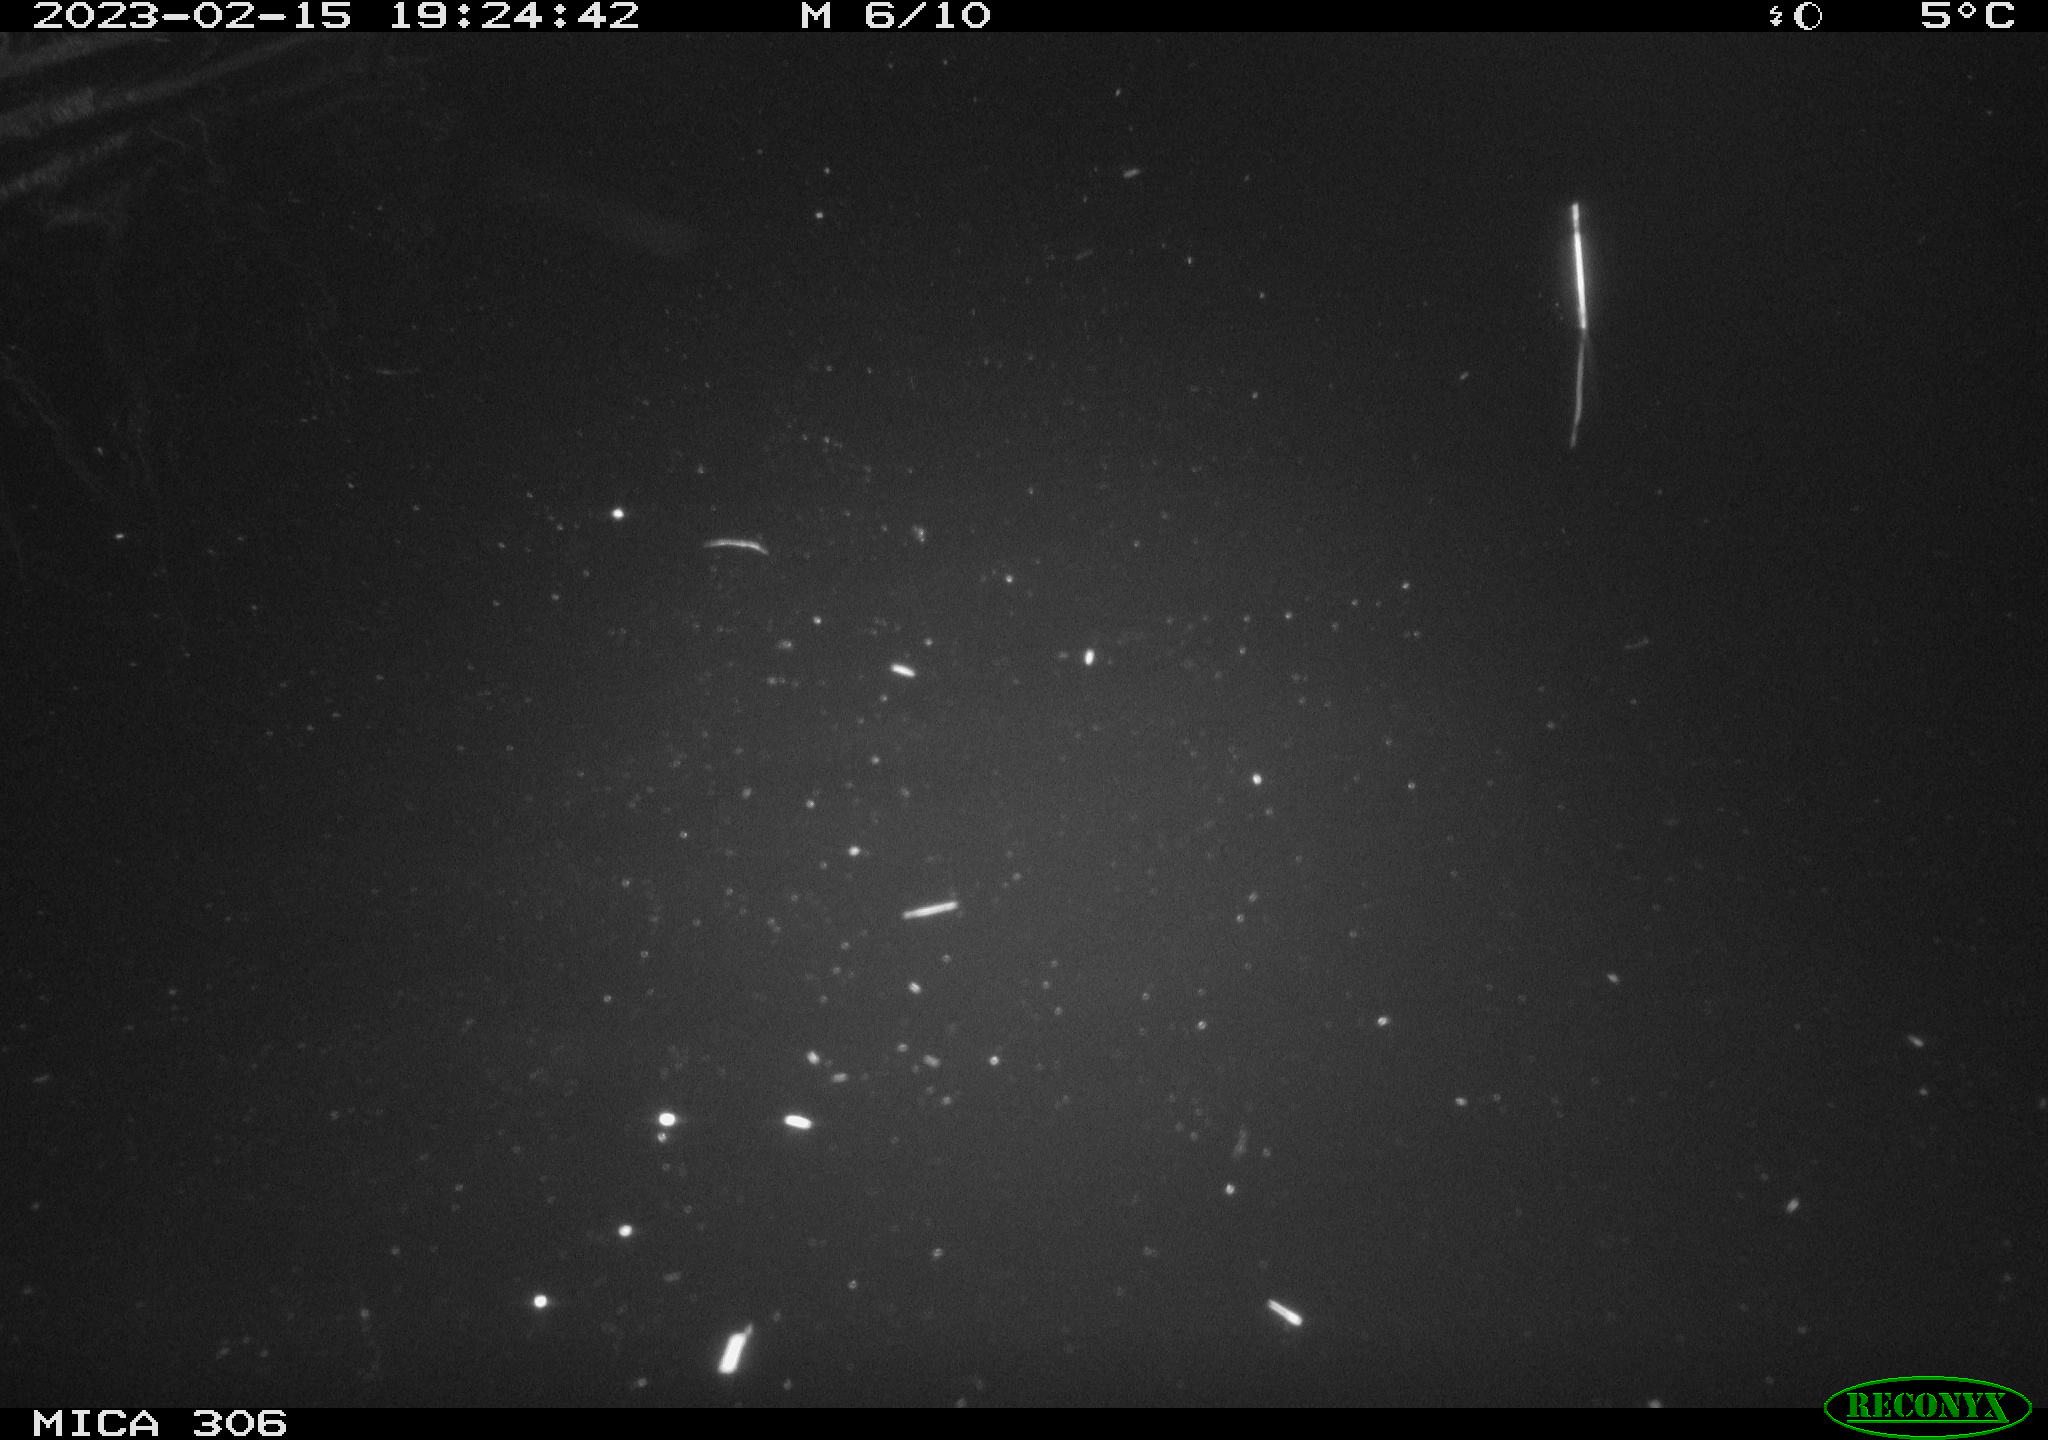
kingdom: Animalia
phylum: Chordata
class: Mammalia
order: Rodentia
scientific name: Rodentia
